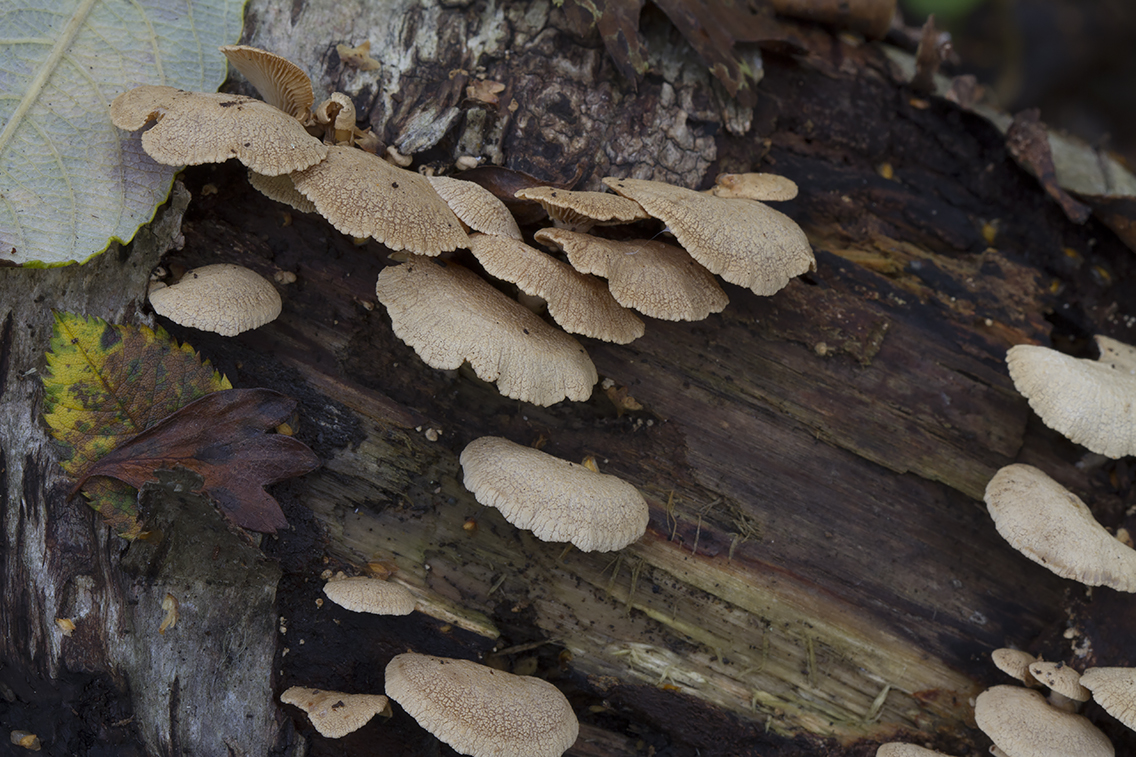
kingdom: Fungi
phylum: Basidiomycota
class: Agaricomycetes
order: Agaricales
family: Mycenaceae
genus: Panellus
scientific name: Panellus stipticus
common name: kliddet epaulethat
